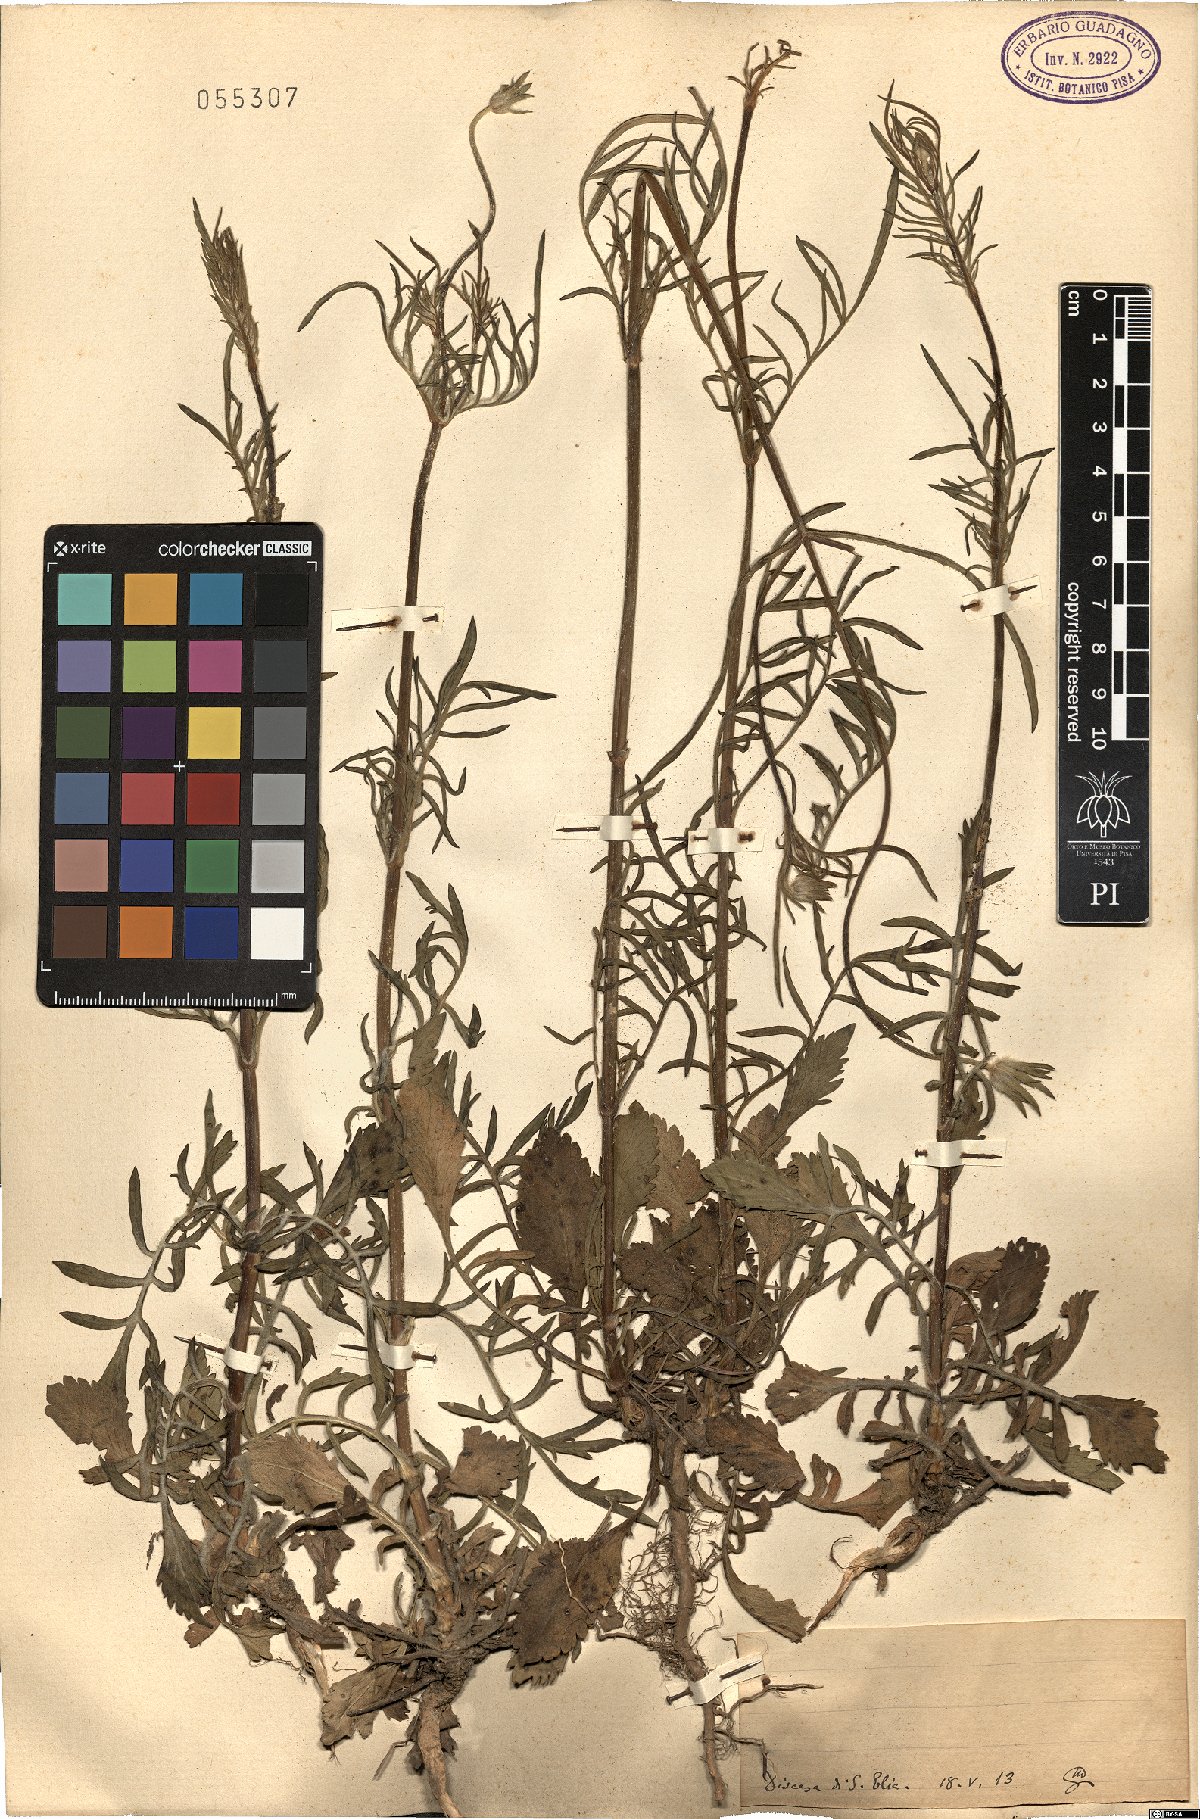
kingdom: Plantae
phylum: Tracheophyta
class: Magnoliopsida
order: Dipsacales
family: Caprifoliaceae
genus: Scabiosa
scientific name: Scabiosa
